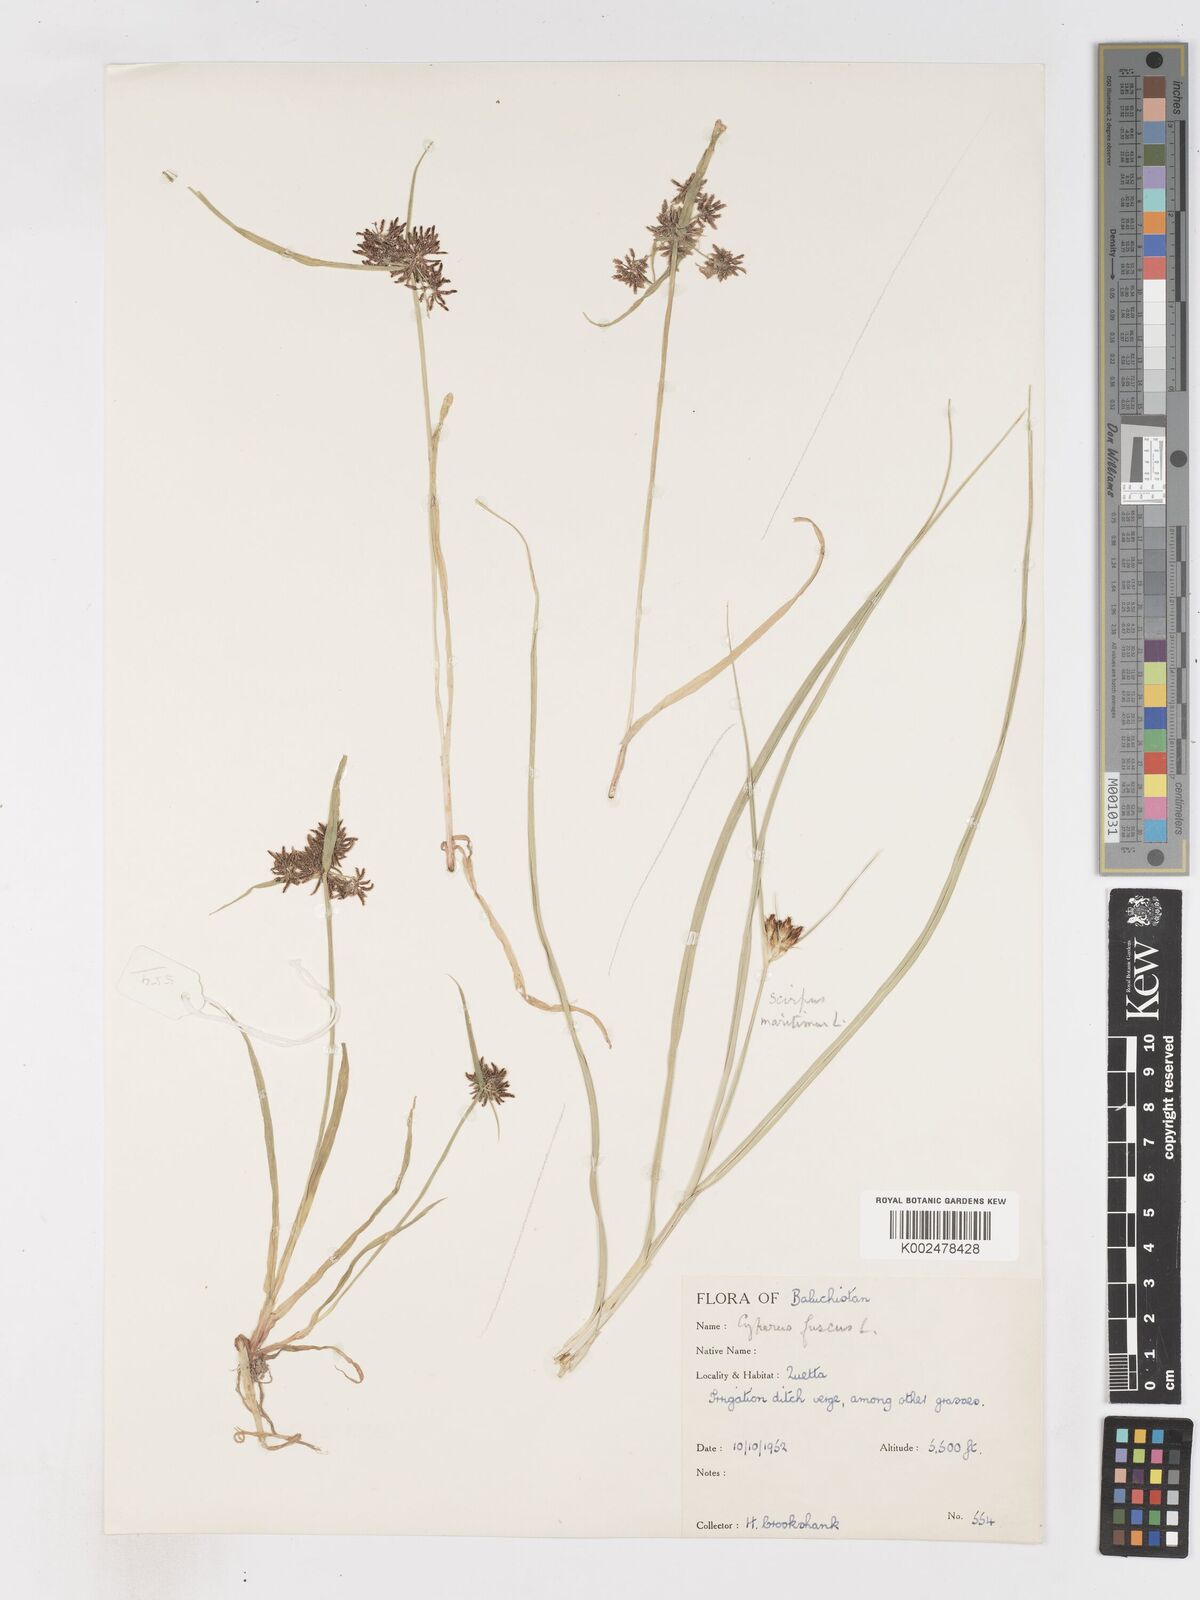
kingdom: Plantae
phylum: Tracheophyta
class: Liliopsida
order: Poales
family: Cyperaceae
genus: Cyperus
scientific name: Cyperus fuscus
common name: Brown galingale
